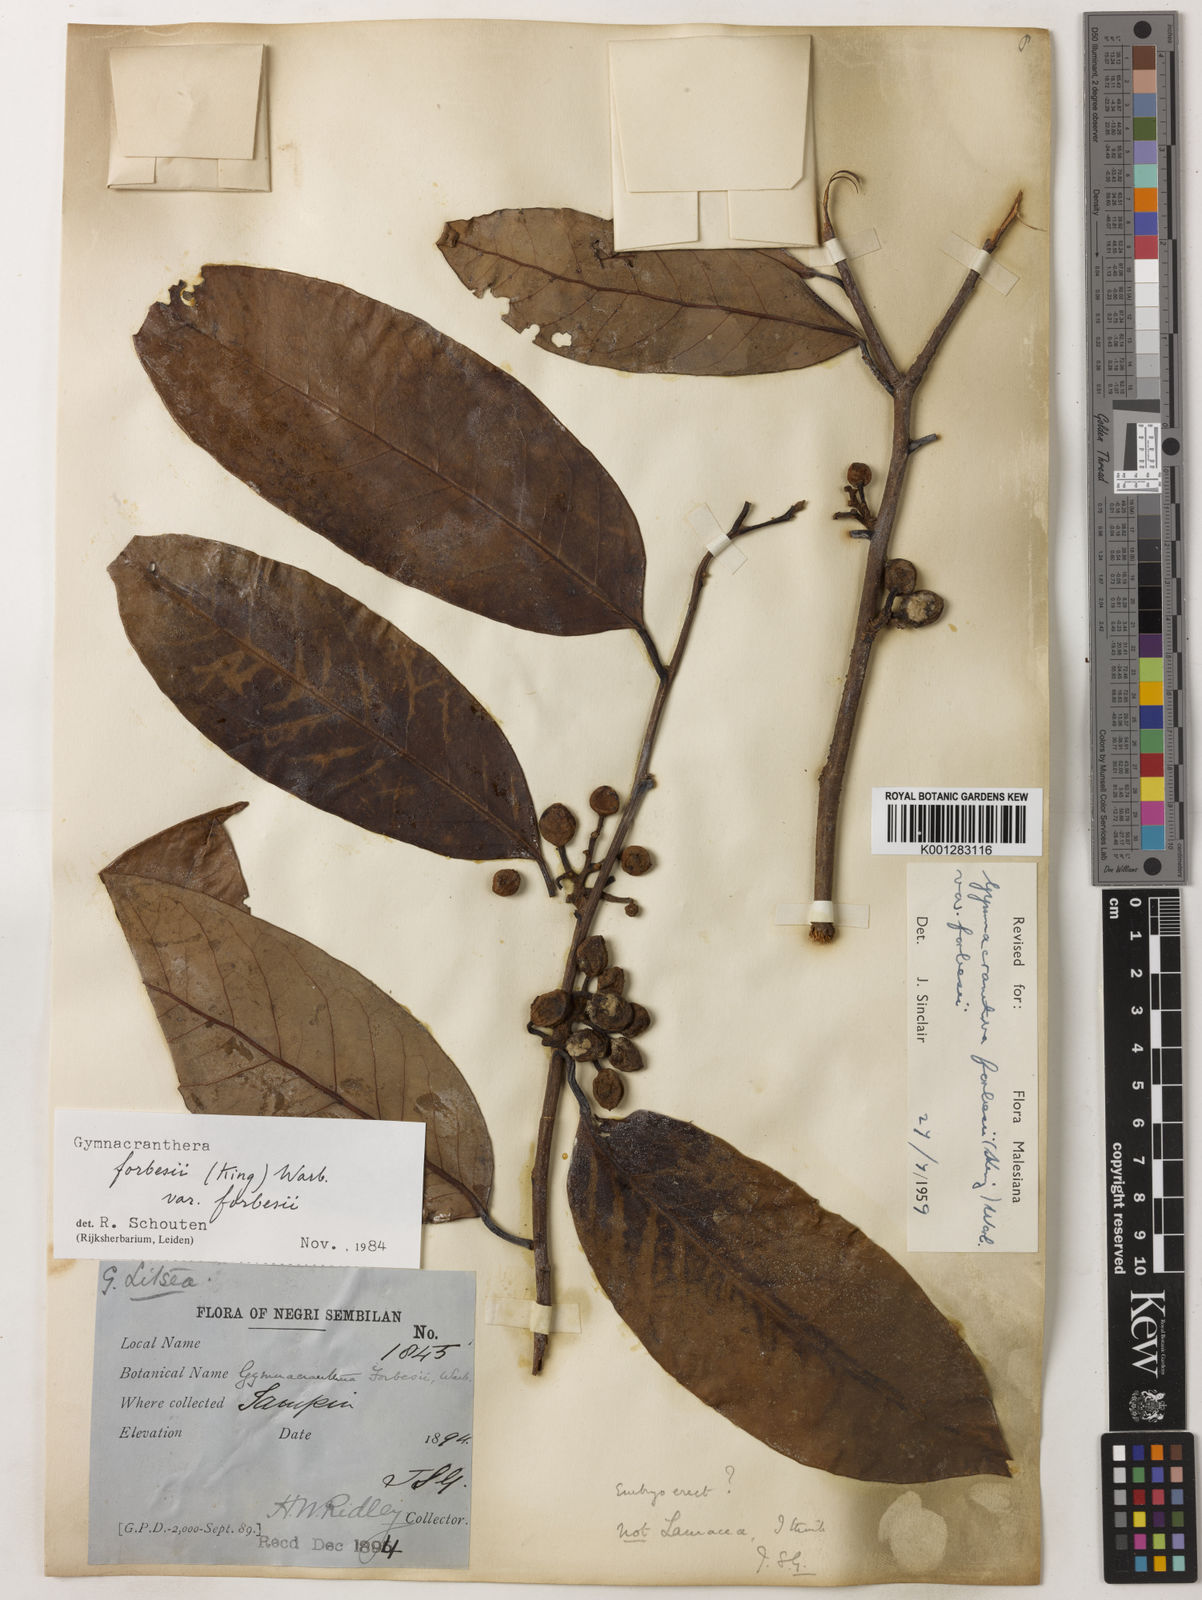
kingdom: Plantae
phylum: Tracheophyta
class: Magnoliopsida
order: Magnoliales
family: Myristicaceae
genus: Gymnacranthera
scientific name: Gymnacranthera forbesii
